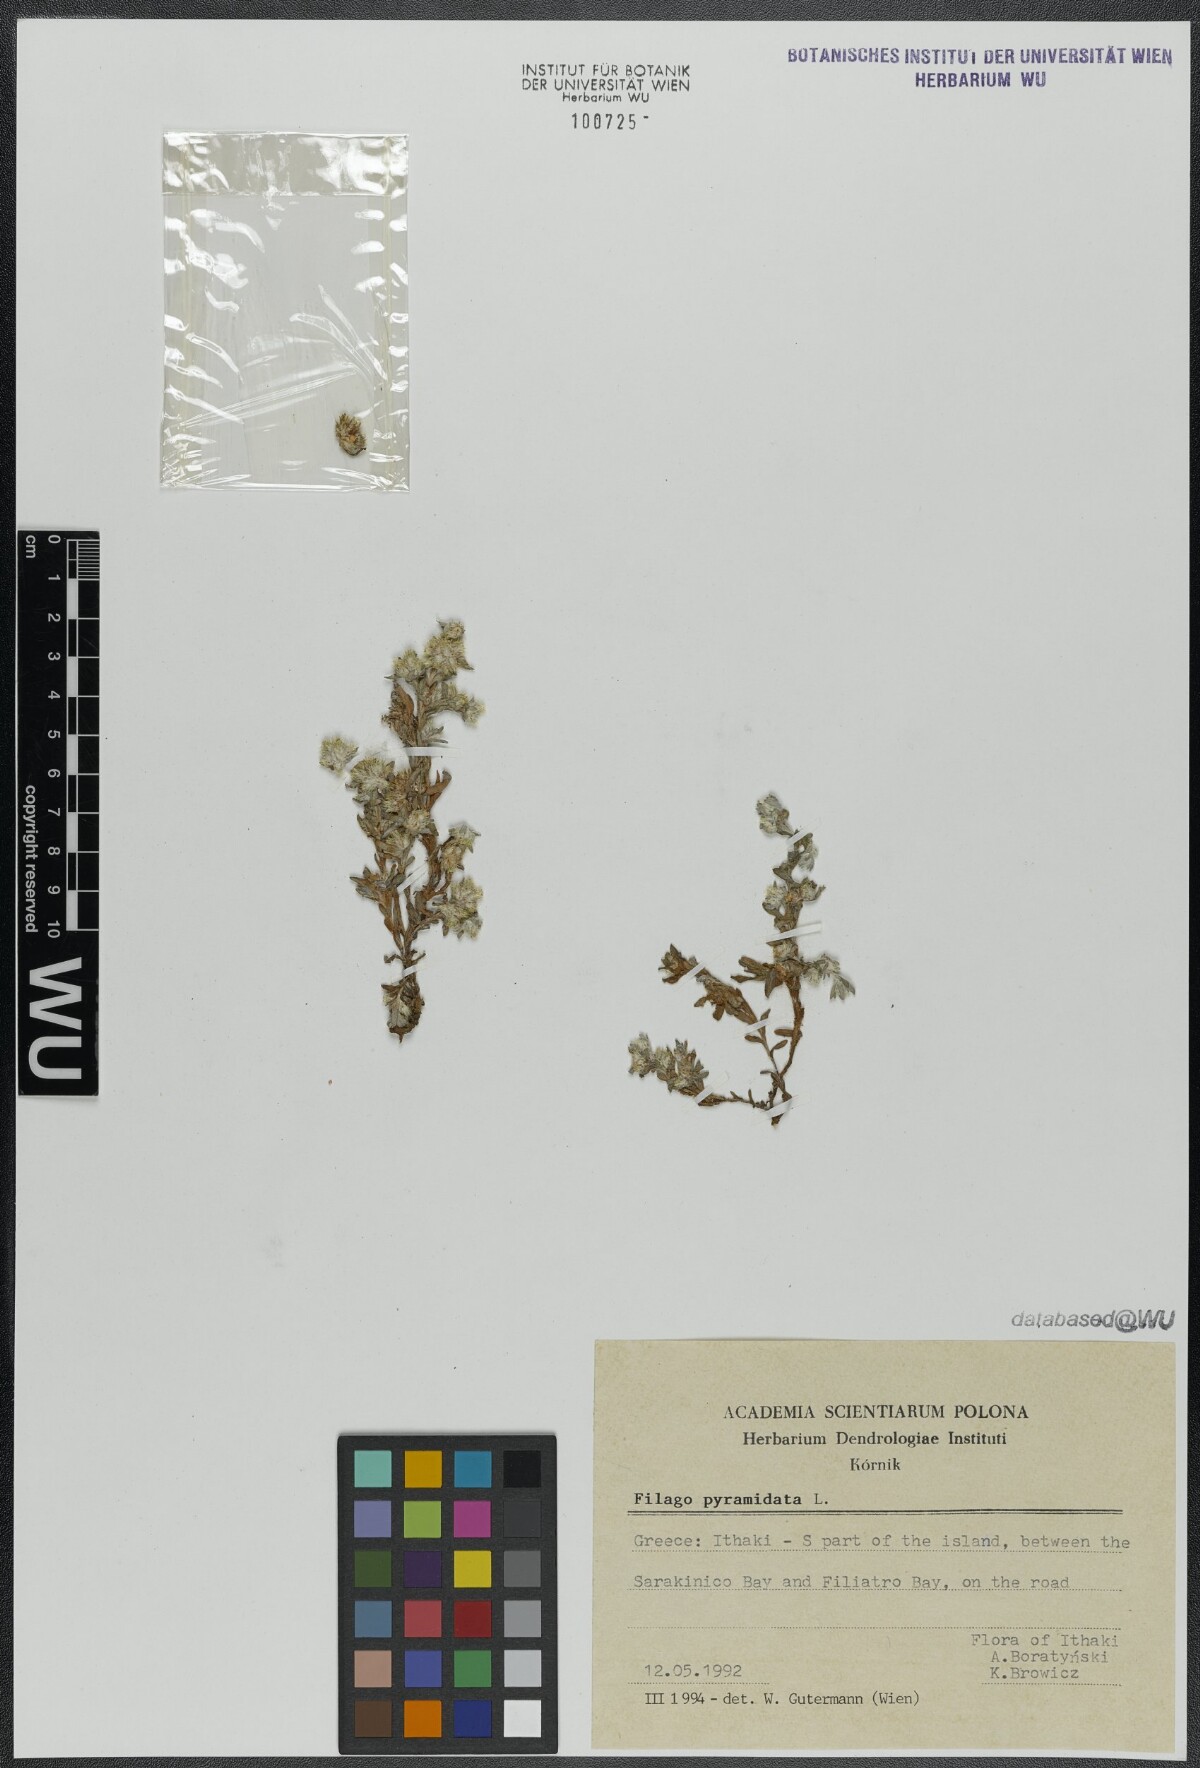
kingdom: Plantae
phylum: Tracheophyta
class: Magnoliopsida
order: Asterales
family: Asteraceae
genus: Filago
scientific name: Filago pyramidata
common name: Broad-leaved cudweed
